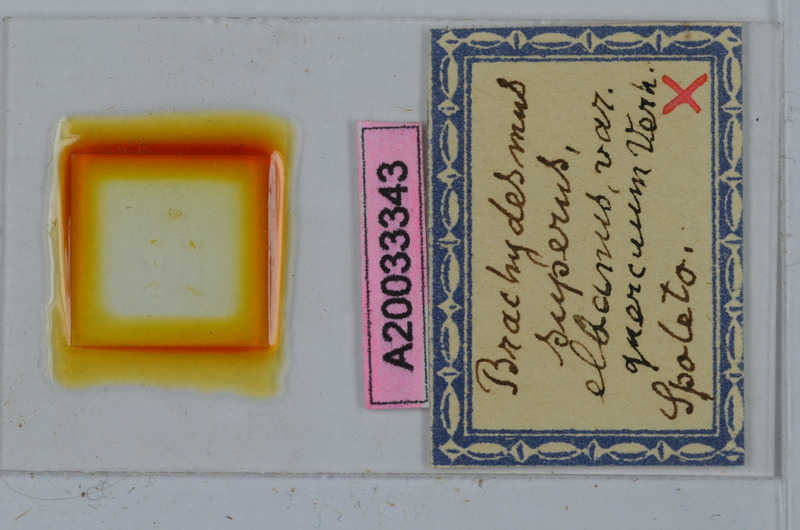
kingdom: Animalia
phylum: Arthropoda
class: Diplopoda
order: Polydesmida
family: Polydesmidae
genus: Brachydesmus
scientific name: Brachydesmus superus
